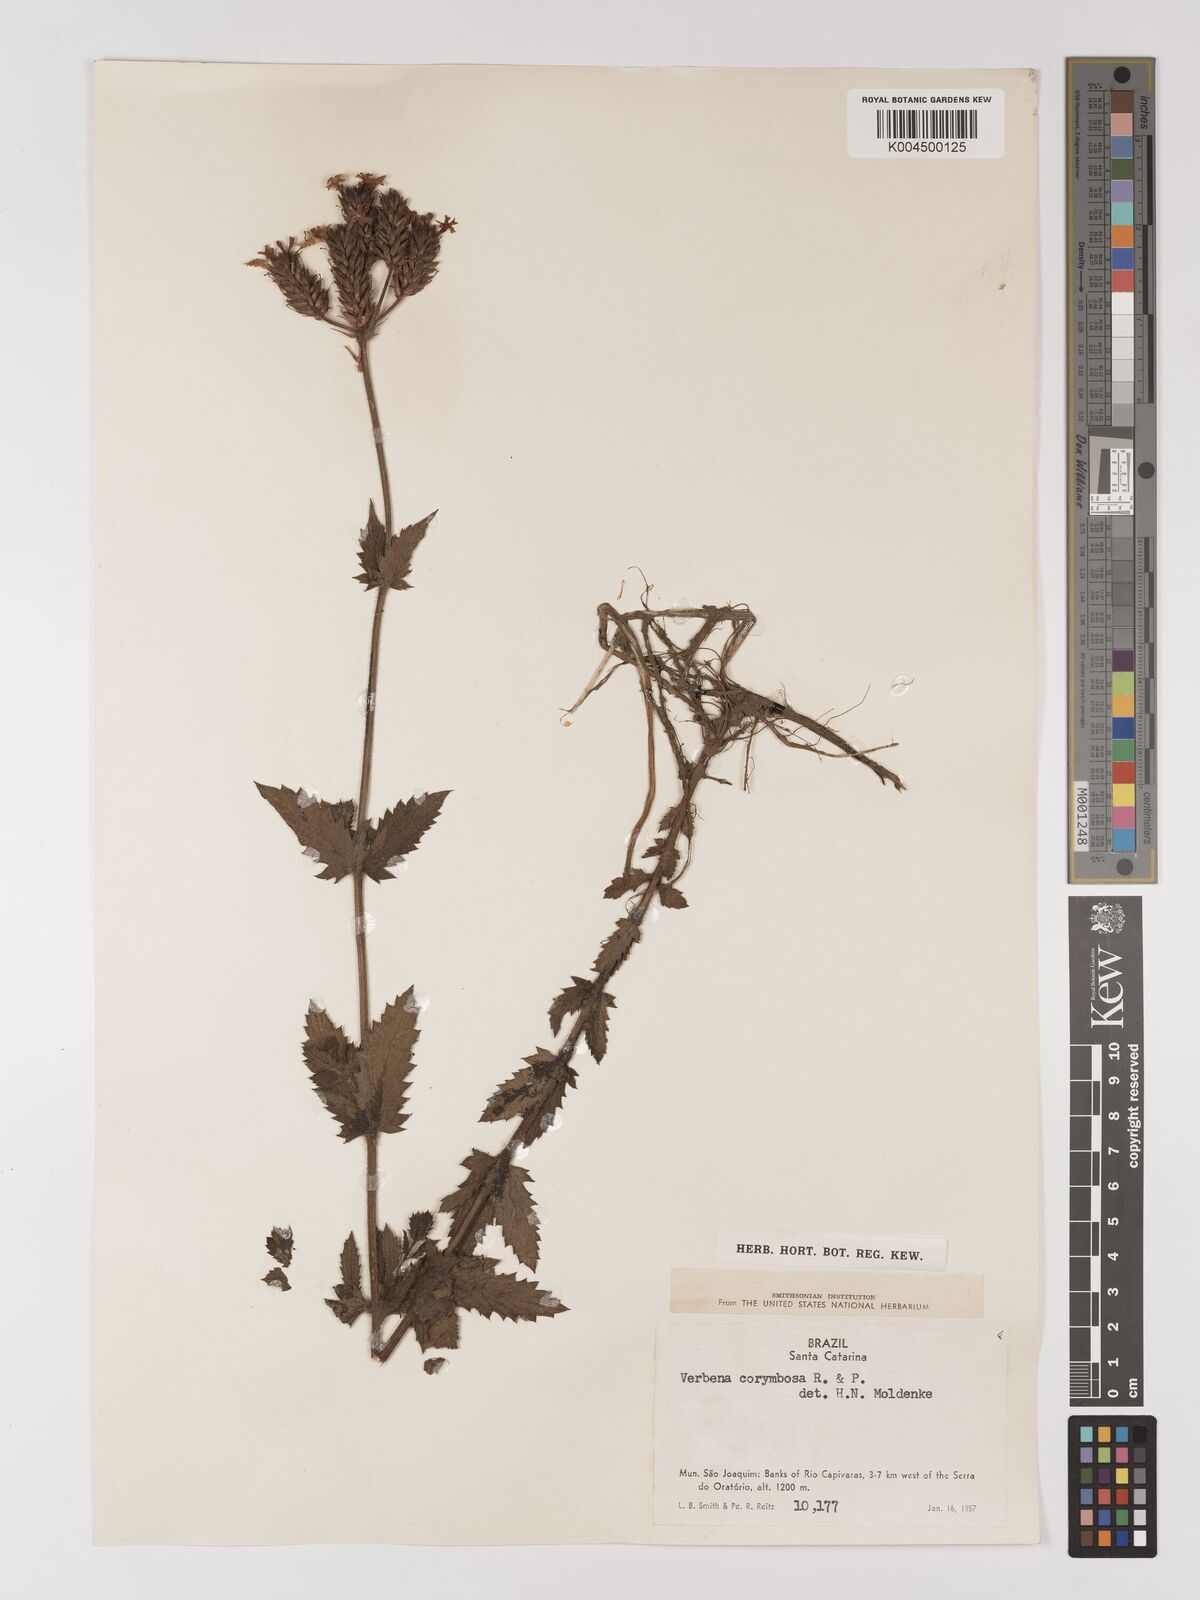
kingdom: Plantae
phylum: Tracheophyta
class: Magnoliopsida
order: Lamiales
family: Verbenaceae
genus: Verbena
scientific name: Verbena
